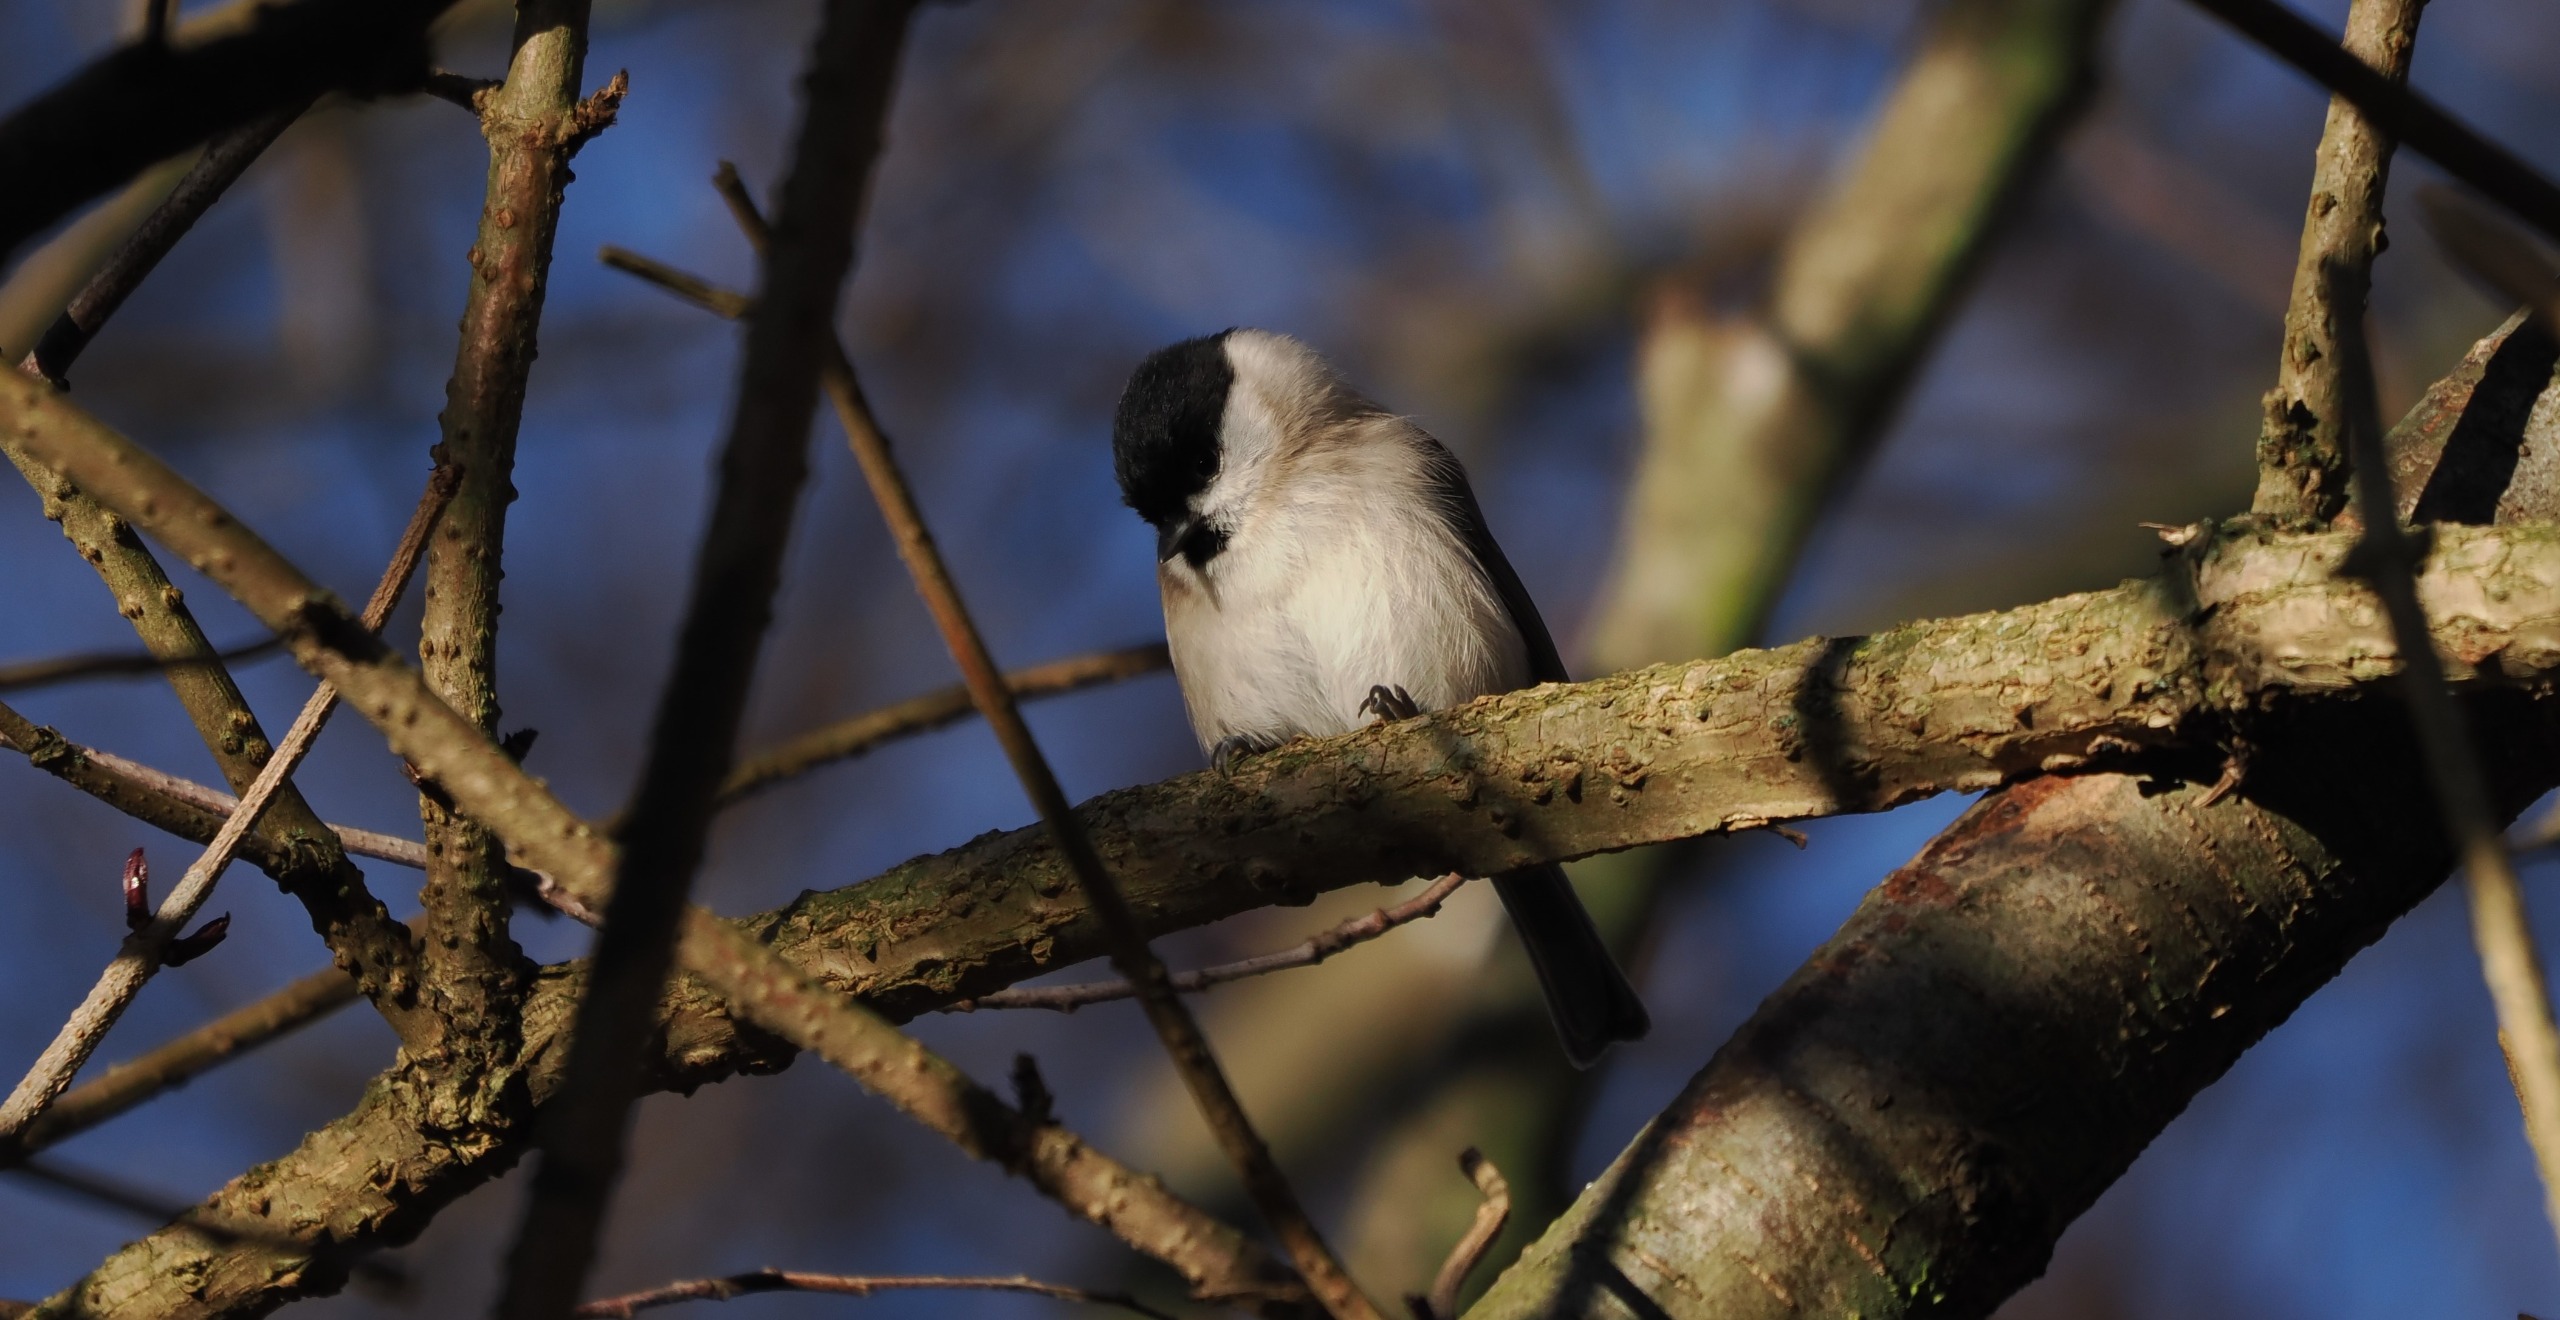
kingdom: Animalia
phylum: Chordata
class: Aves
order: Passeriformes
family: Paridae
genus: Poecile
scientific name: Poecile palustris
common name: Sumpmejse
